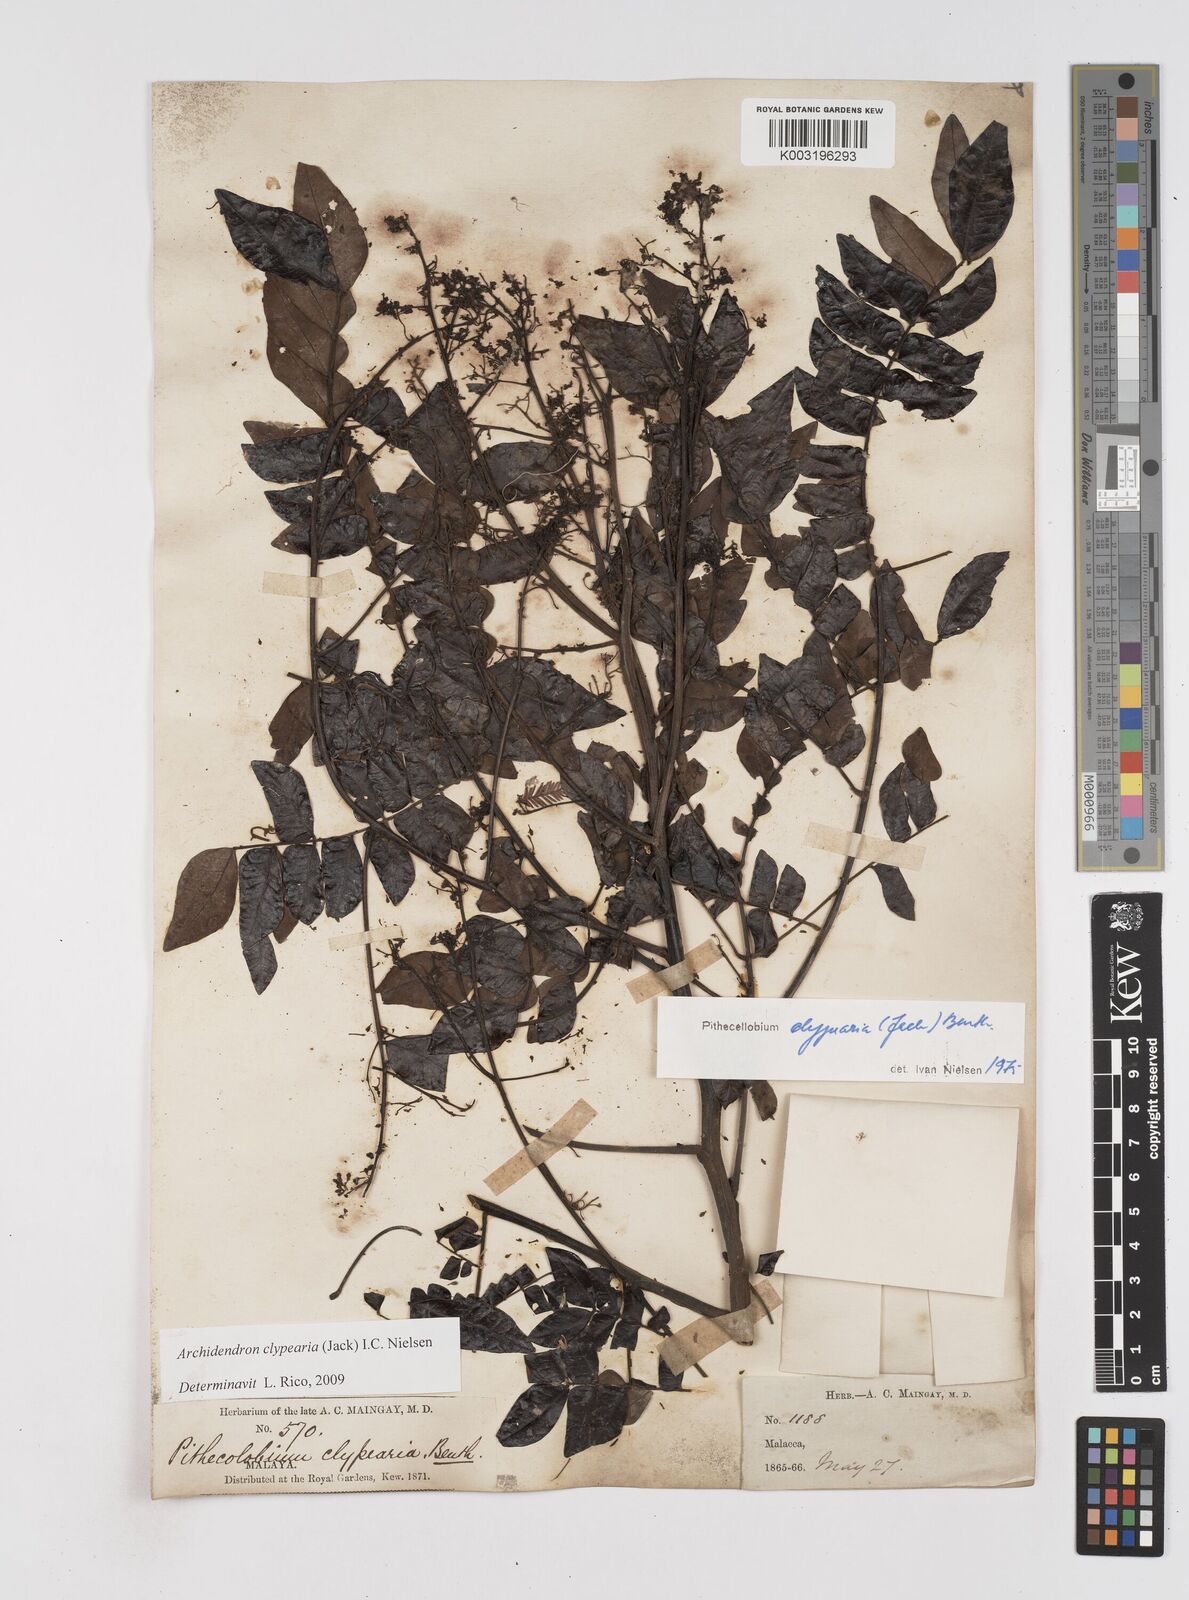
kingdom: Plantae
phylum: Tracheophyta
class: Magnoliopsida
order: Fabales
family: Fabaceae
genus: Archidendron
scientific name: Archidendron clypearia
